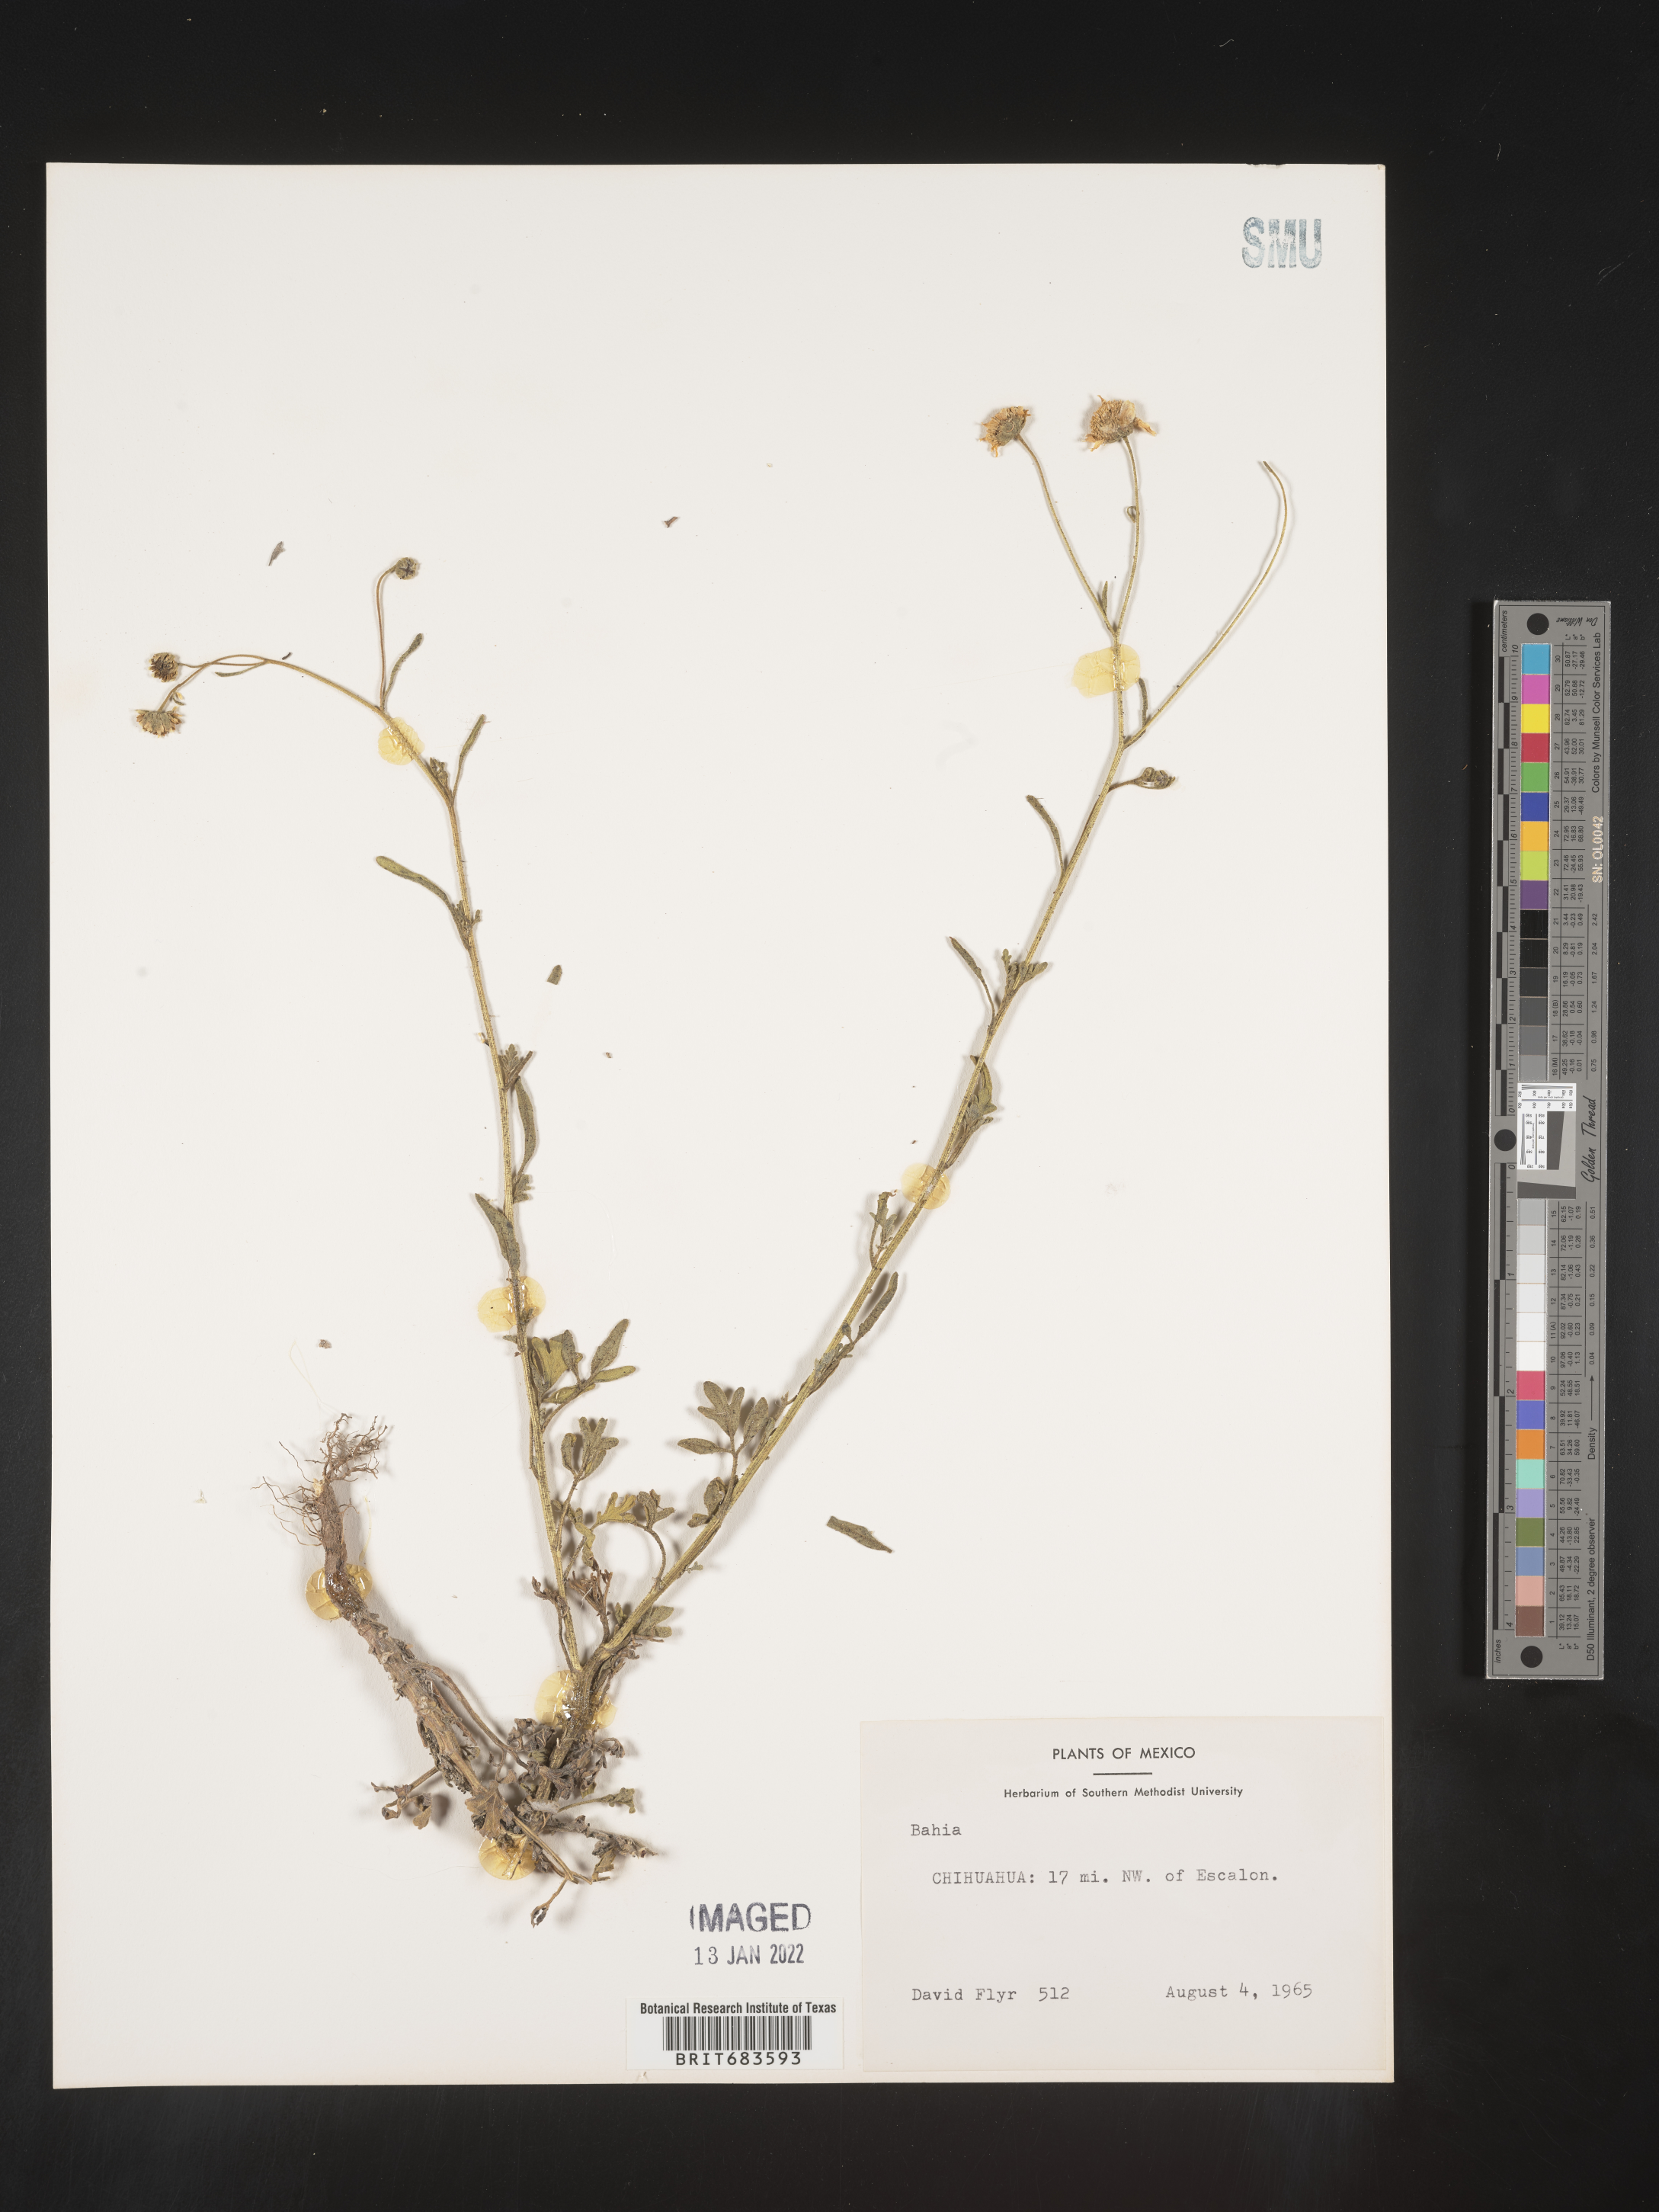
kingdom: Plantae
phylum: Tracheophyta
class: Magnoliopsida
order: Asterales
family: Asteraceae
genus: Bahia
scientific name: Bahia
